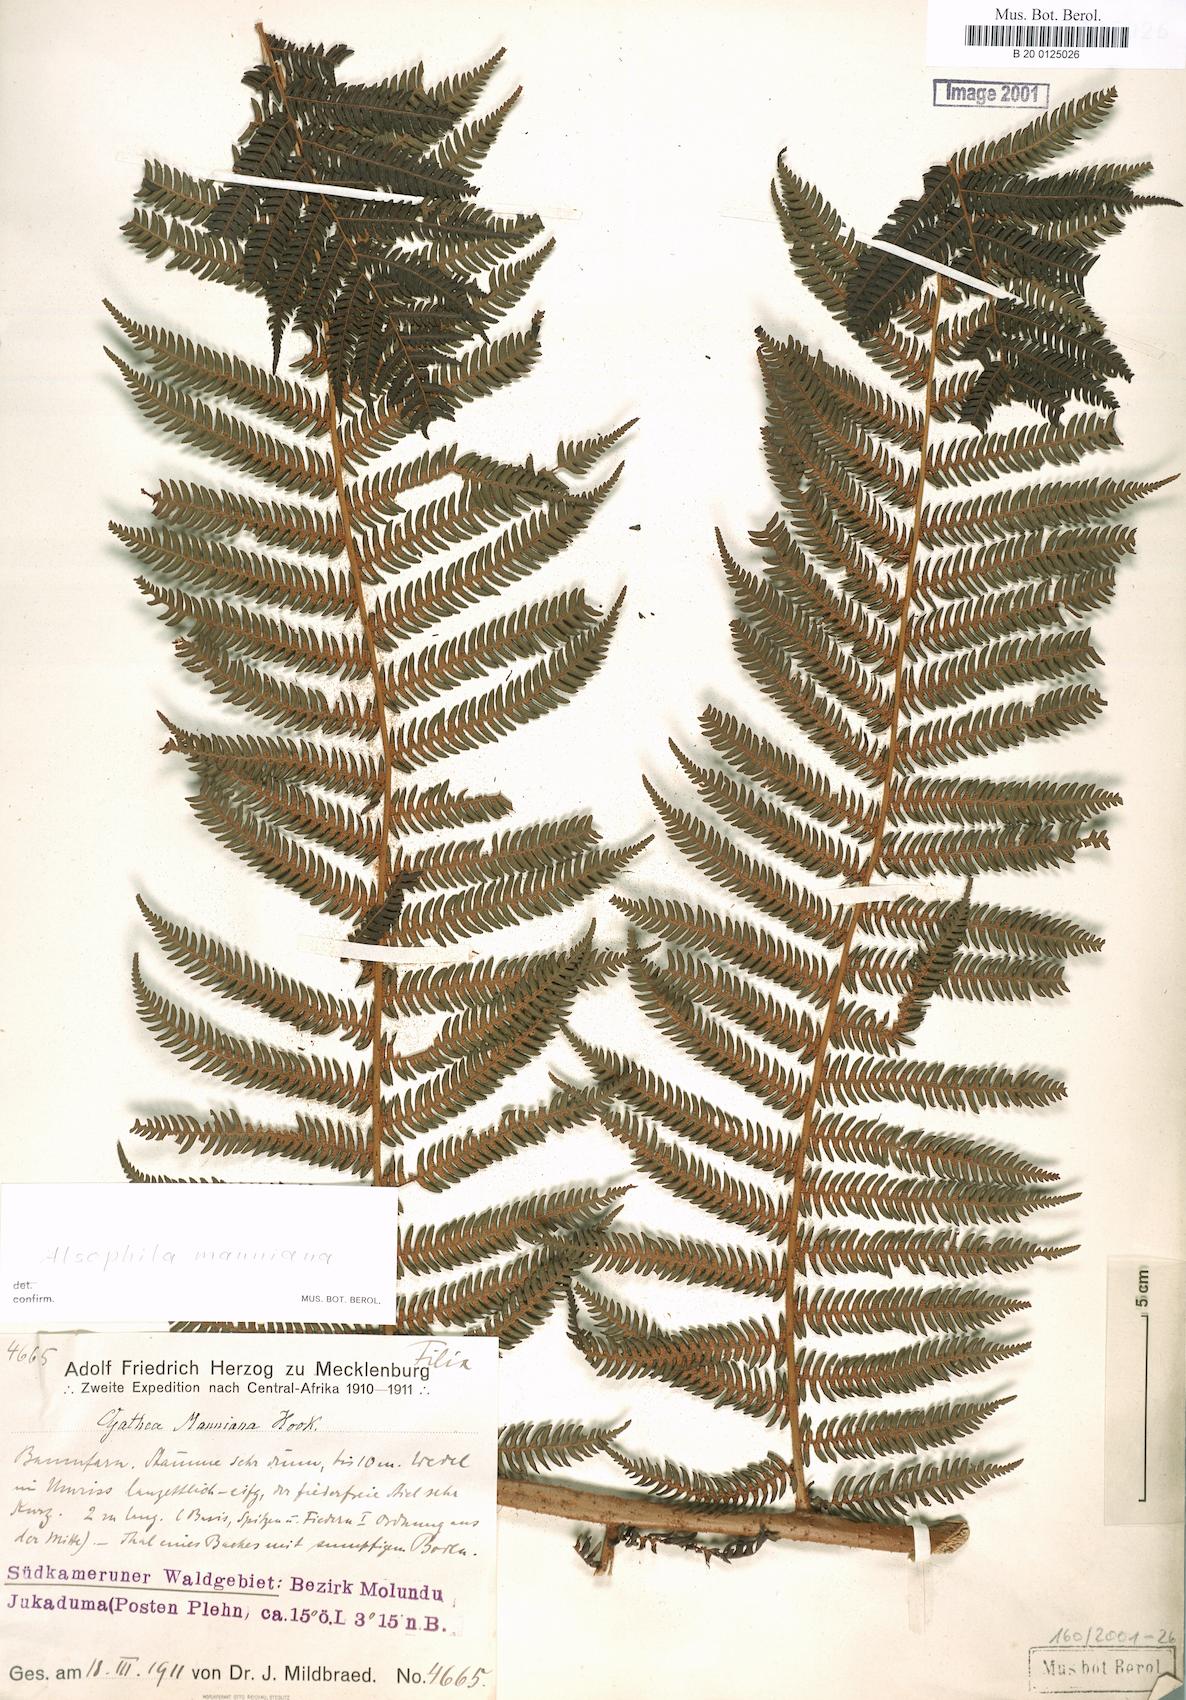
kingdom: Plantae
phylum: Tracheophyta
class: Polypodiopsida
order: Cyatheales
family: Cyatheaceae
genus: Alsophila
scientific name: Alsophila manniana
